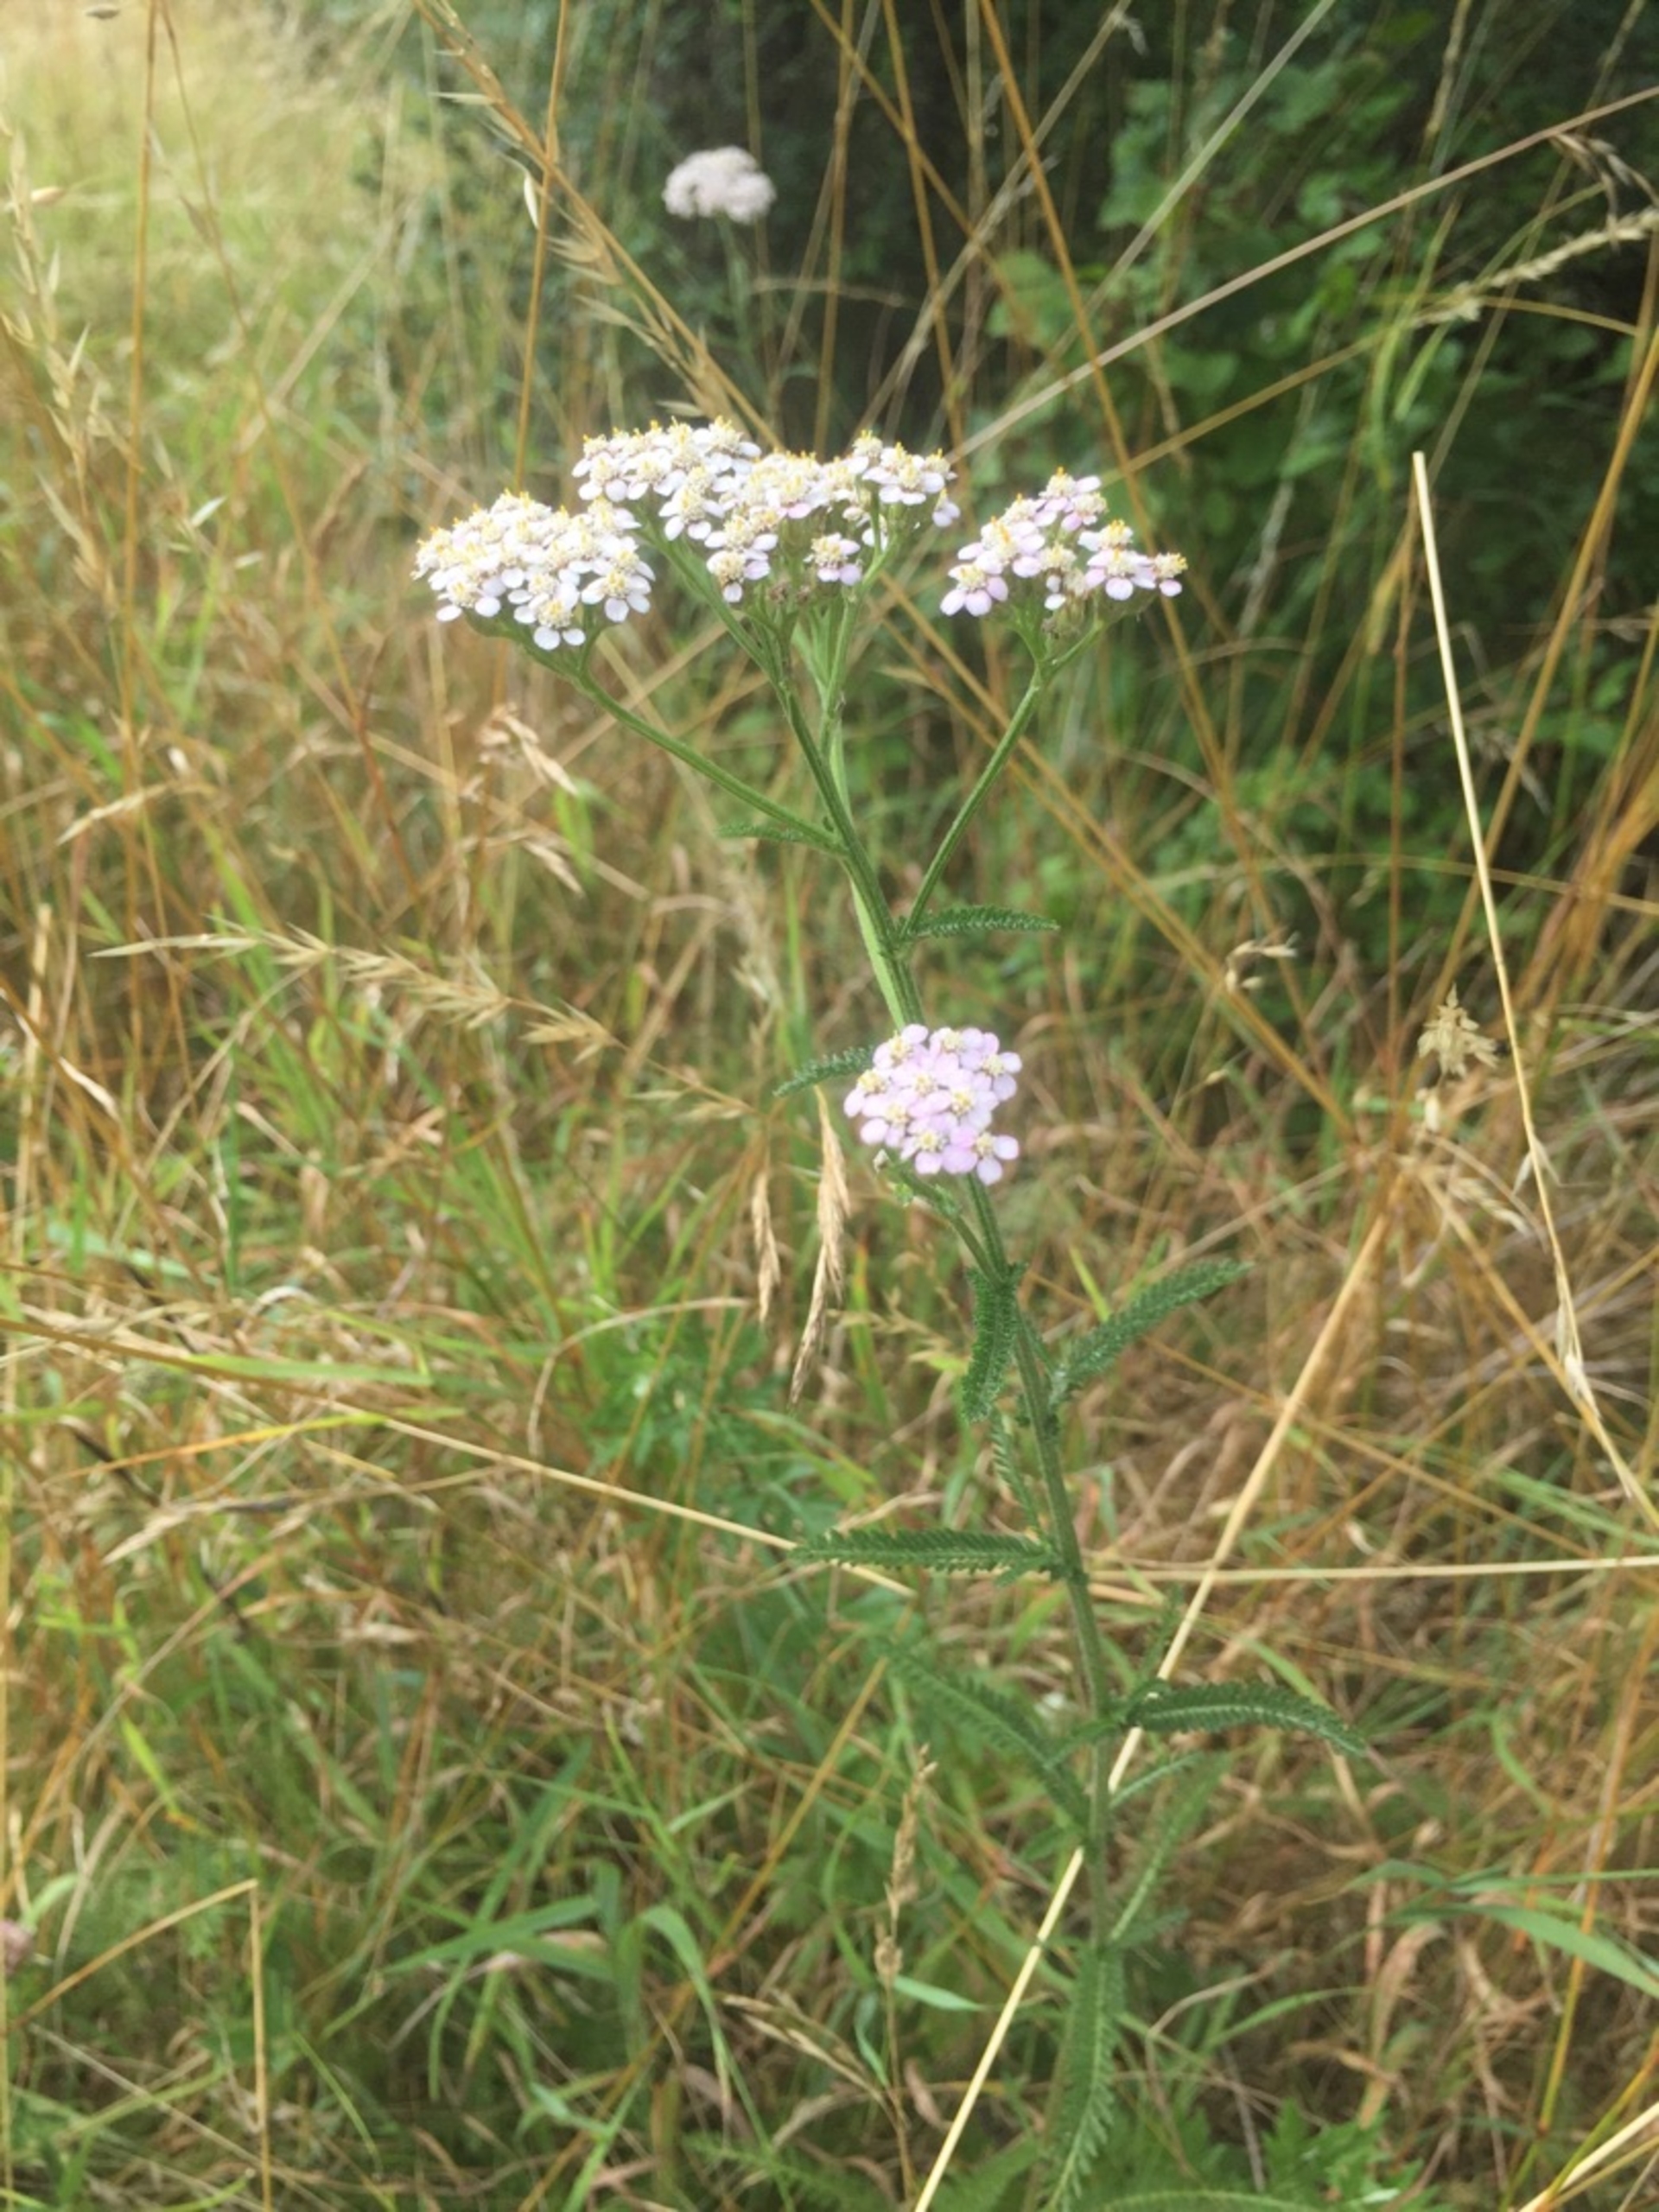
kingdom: Plantae
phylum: Tracheophyta
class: Magnoliopsida
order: Asterales
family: Asteraceae
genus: Achillea
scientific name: Achillea millefolium
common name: Almindelig røllike
